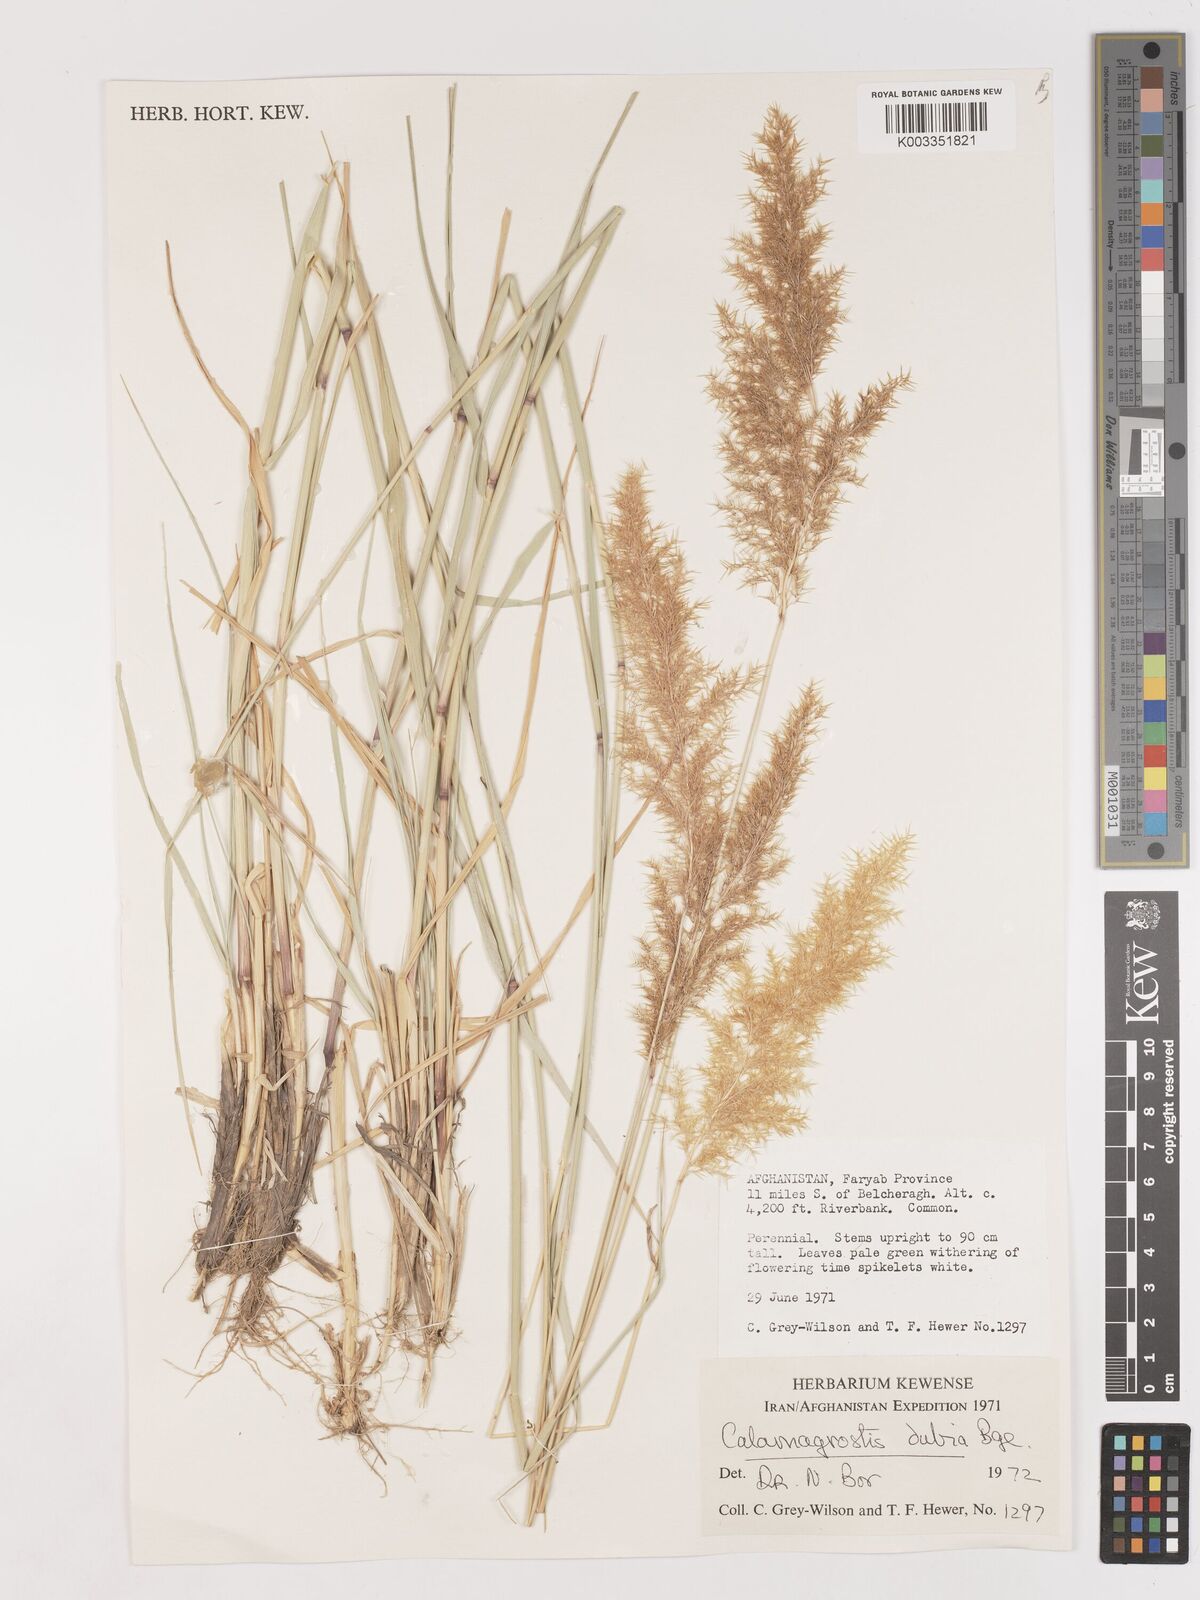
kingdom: Plantae
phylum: Tracheophyta
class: Liliopsida
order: Poales
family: Poaceae
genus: Calamagrostis
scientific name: Calamagrostis pseudophragmites
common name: Coastal small-reed
